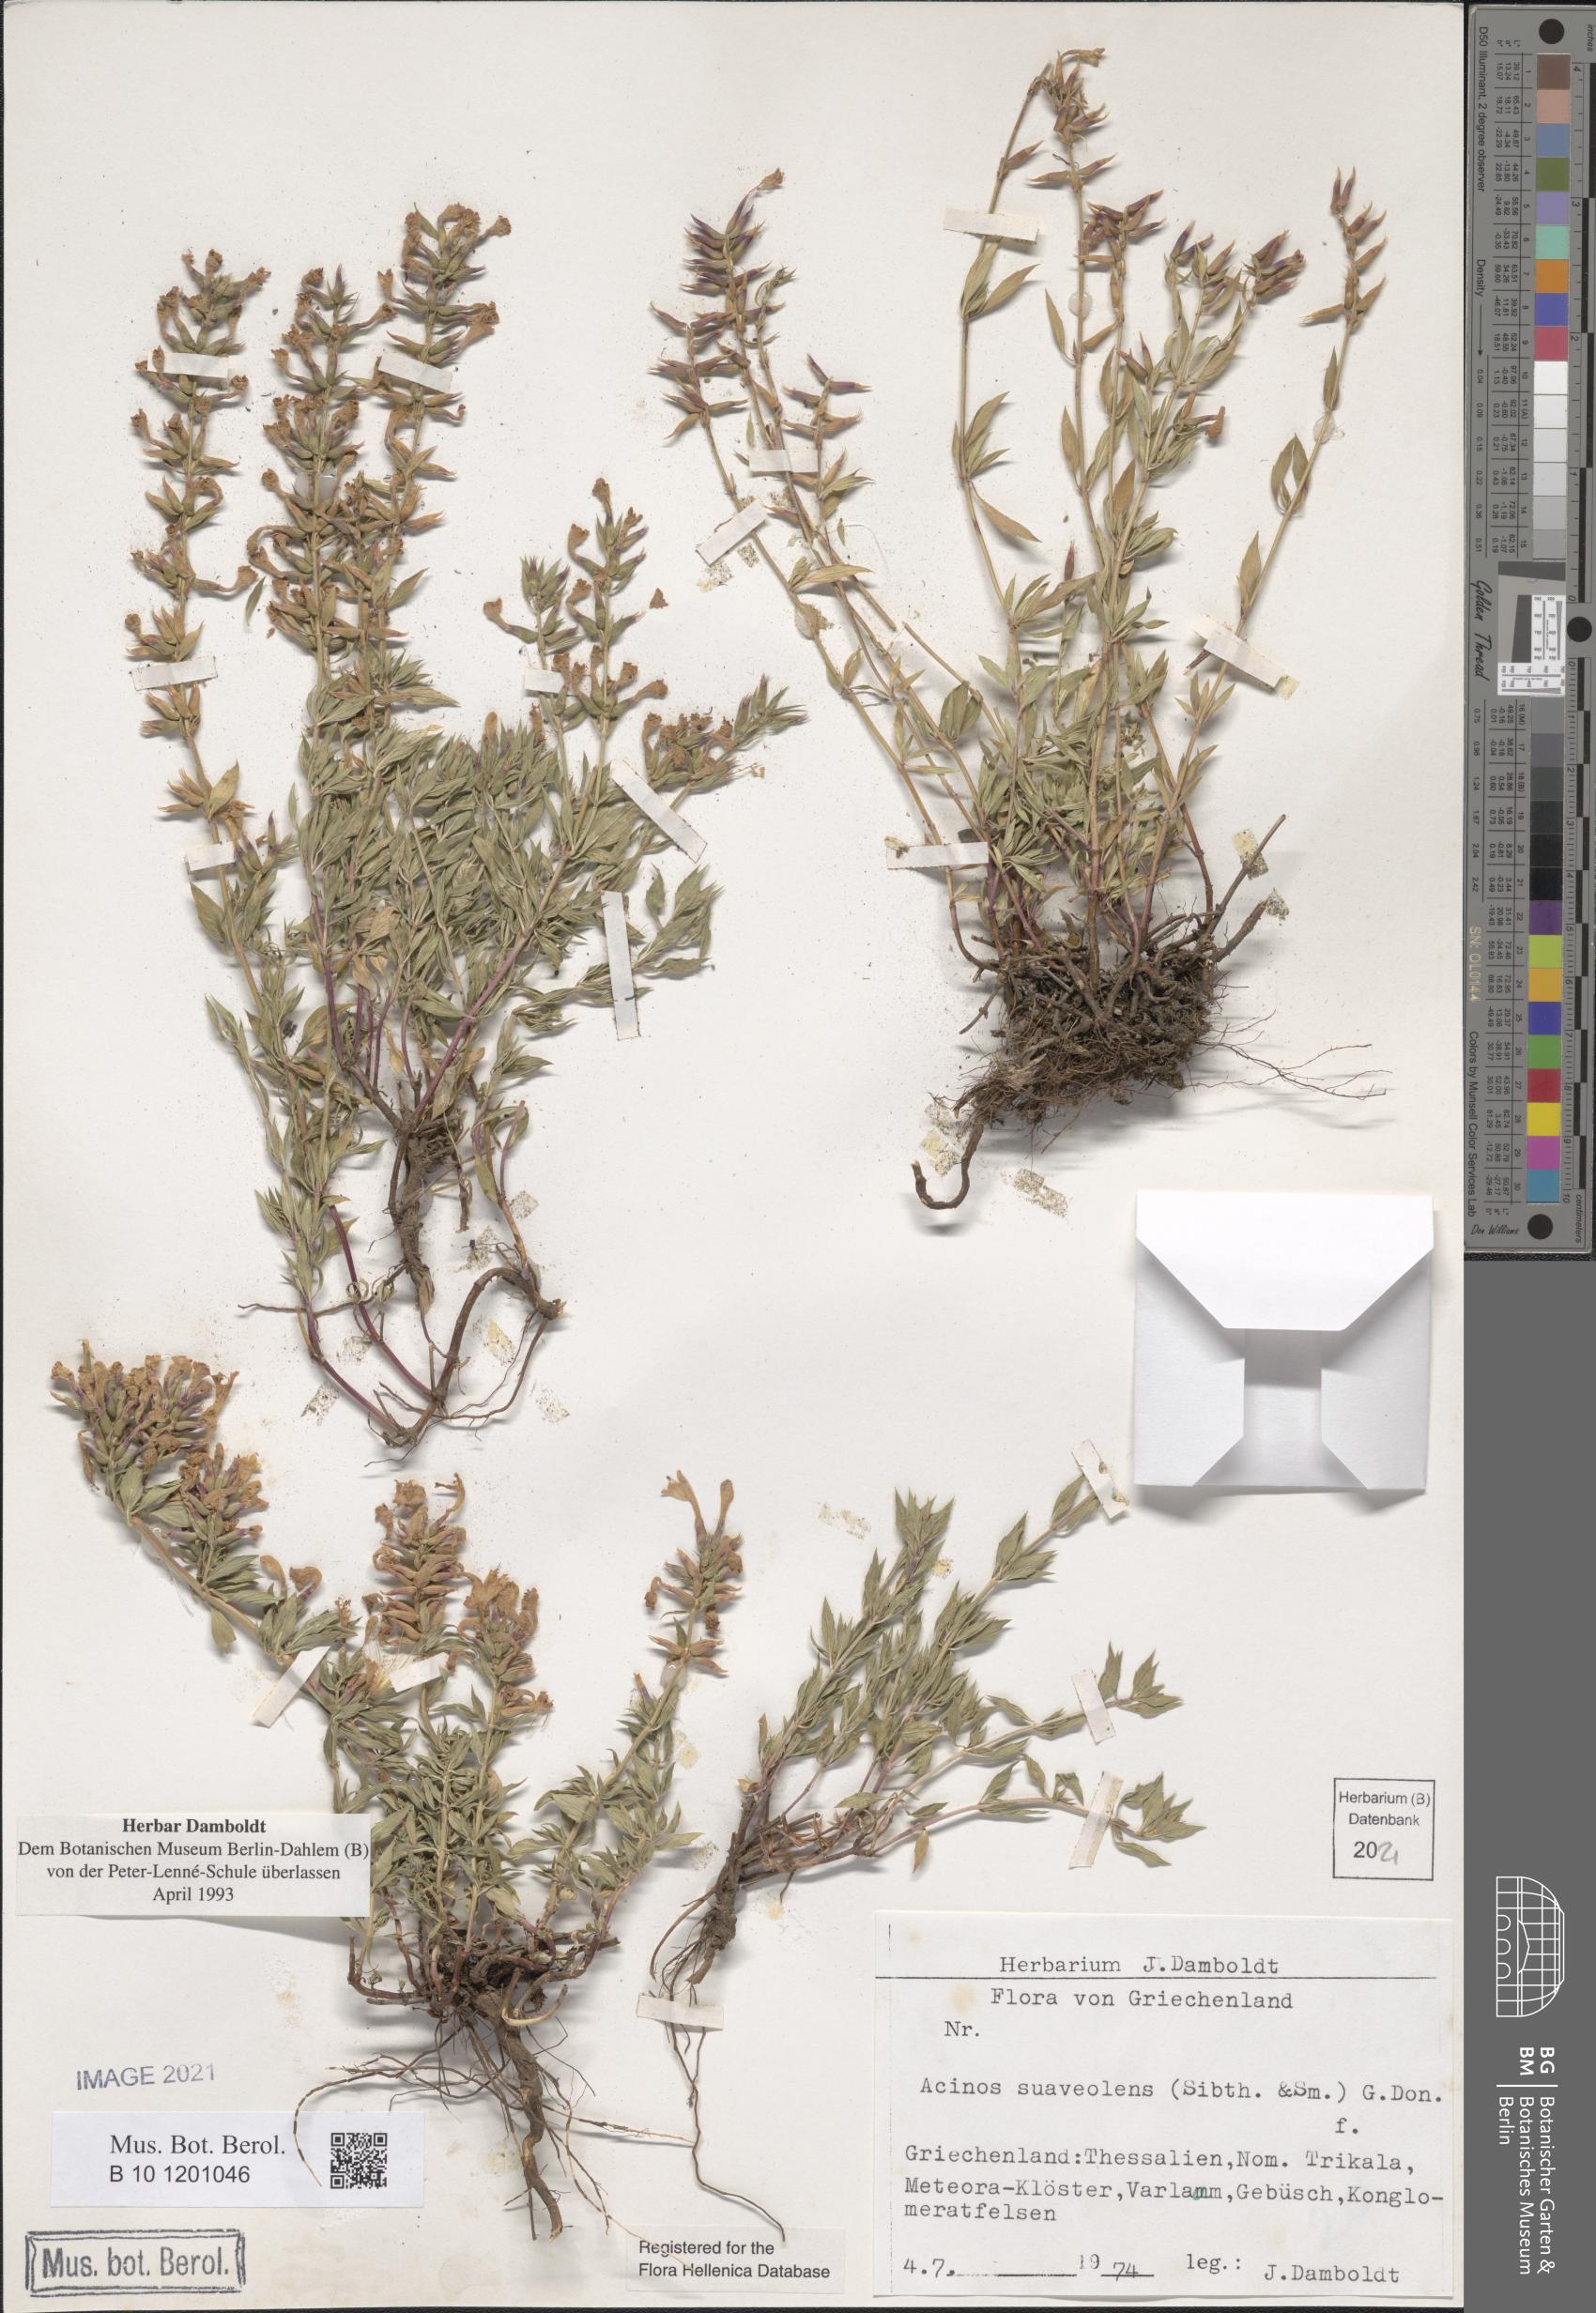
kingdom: Plantae
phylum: Tracheophyta
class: Magnoliopsida
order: Lamiales
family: Lamiaceae
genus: Clinopodium
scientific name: Clinopodium suaveolens
